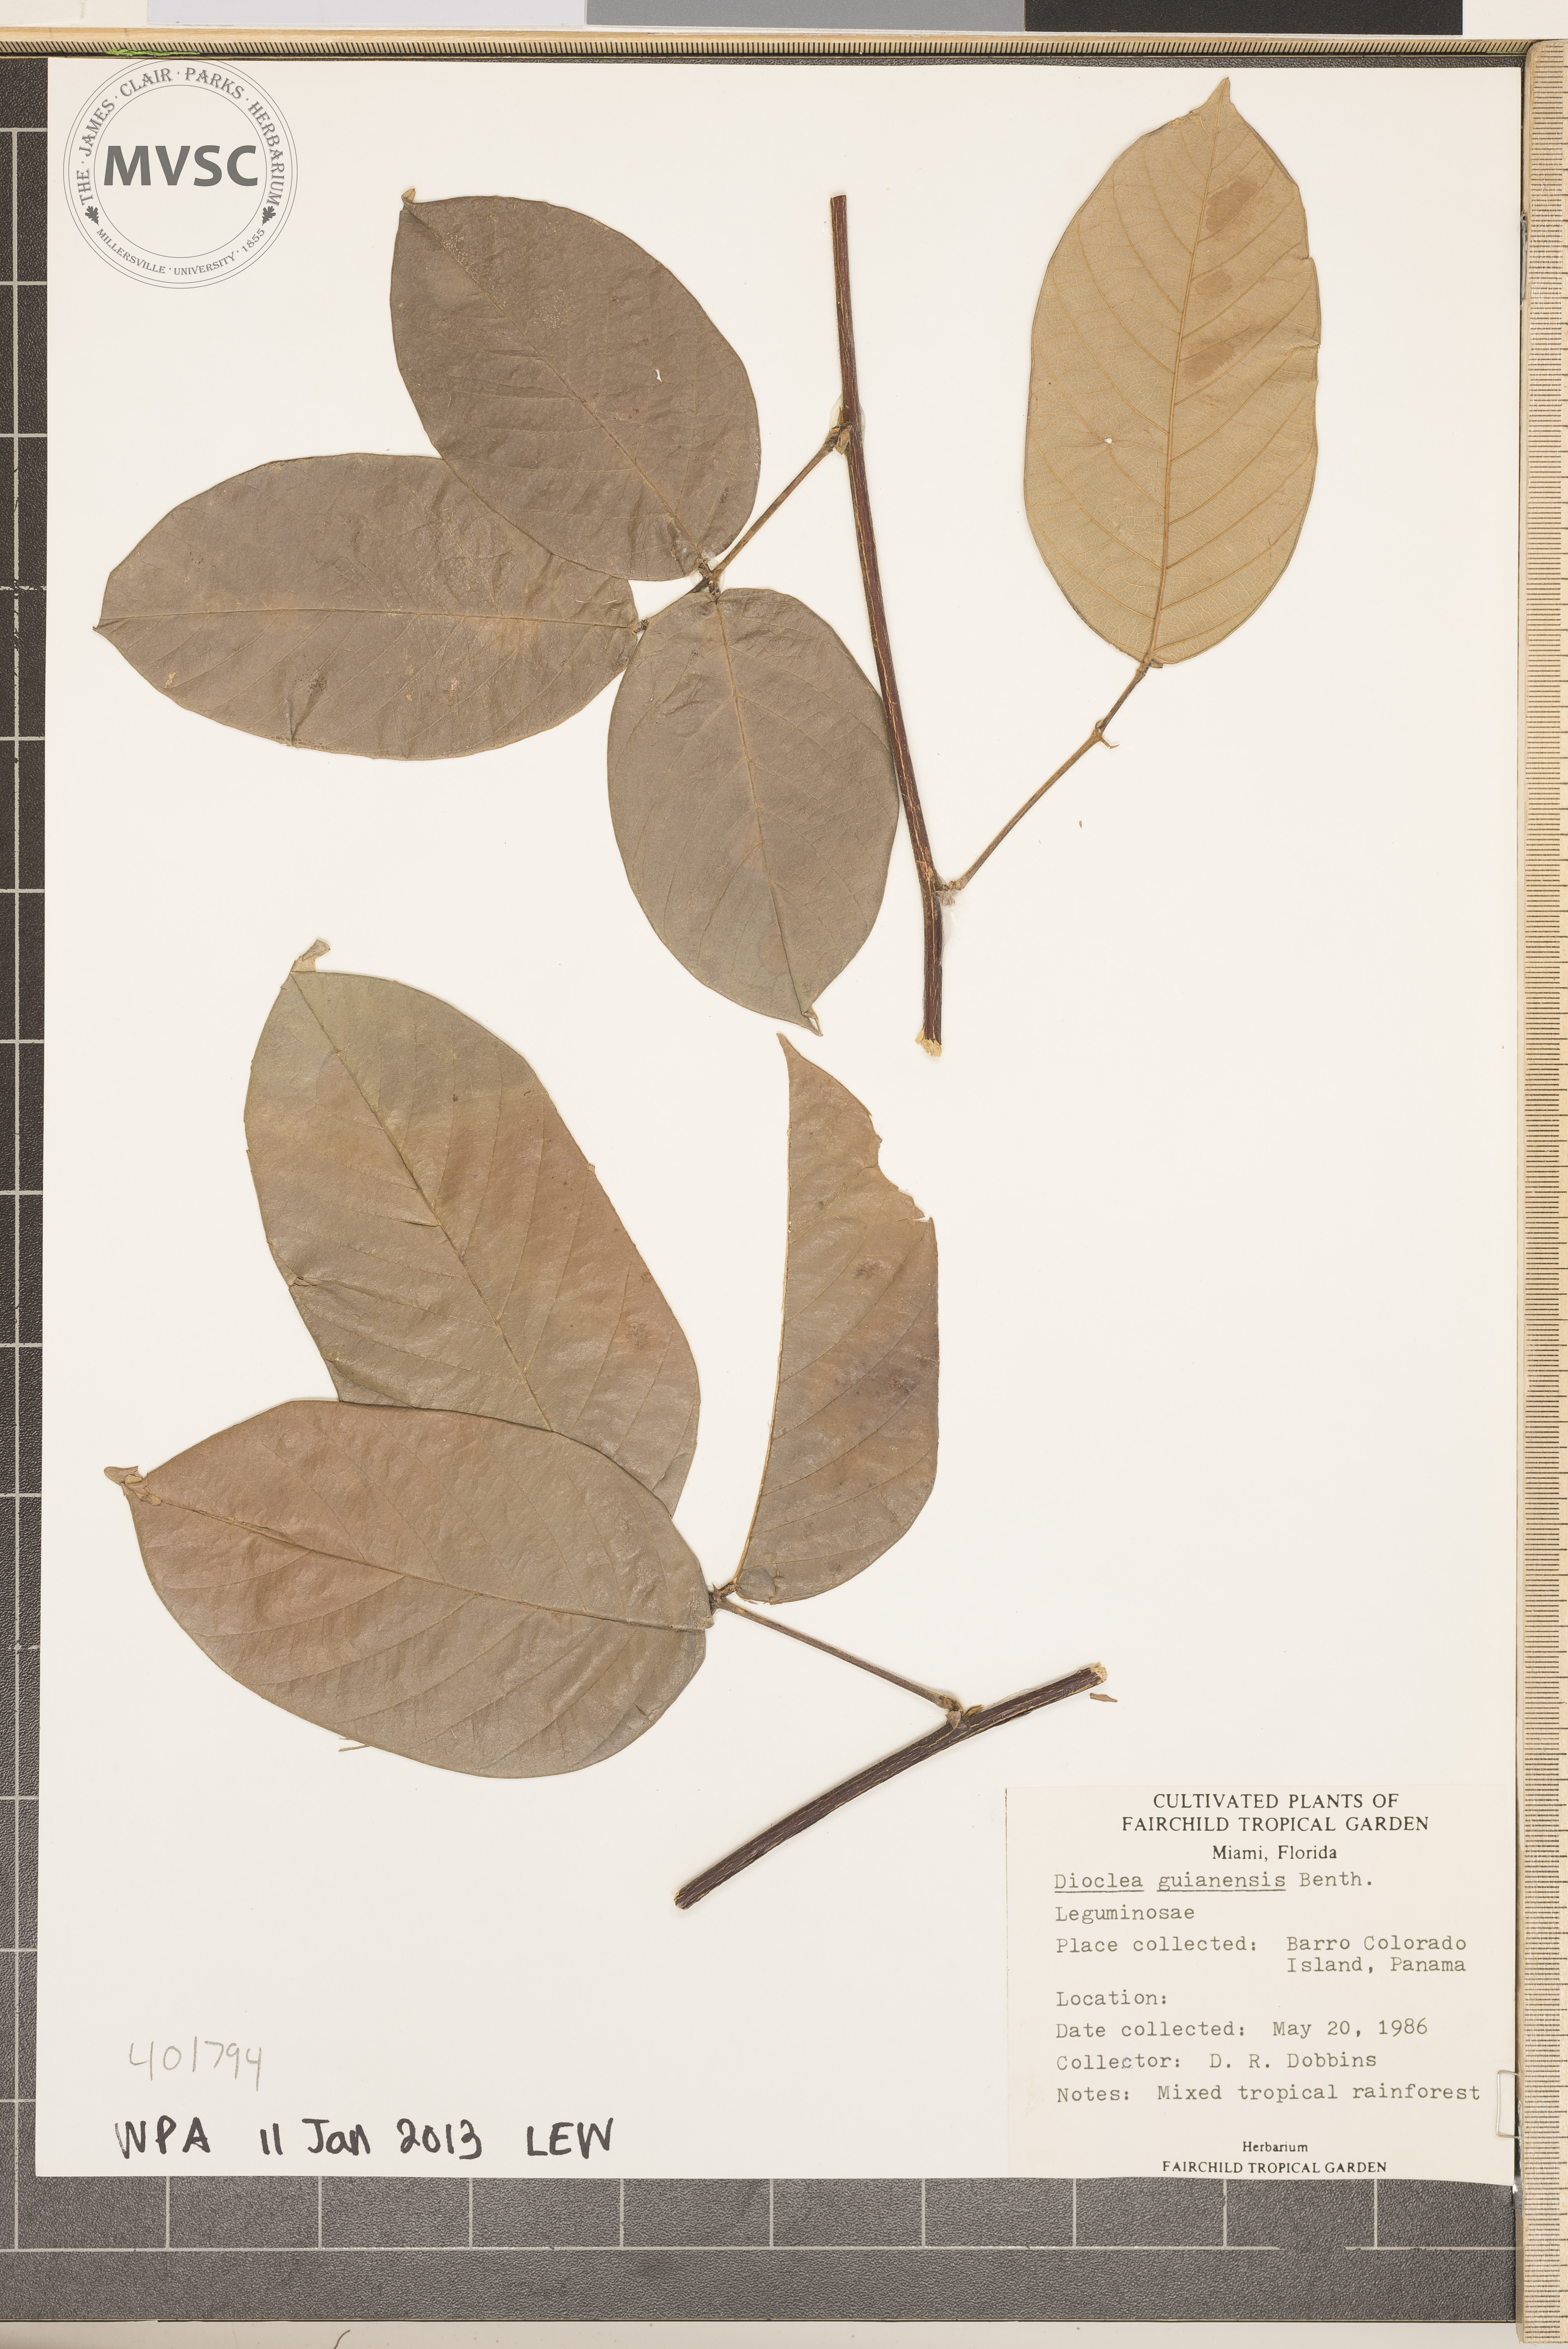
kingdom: Plantae
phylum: Tracheophyta
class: Magnoliopsida
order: Fabales
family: Fabaceae
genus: Dioclea
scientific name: Dioclea guianensis
